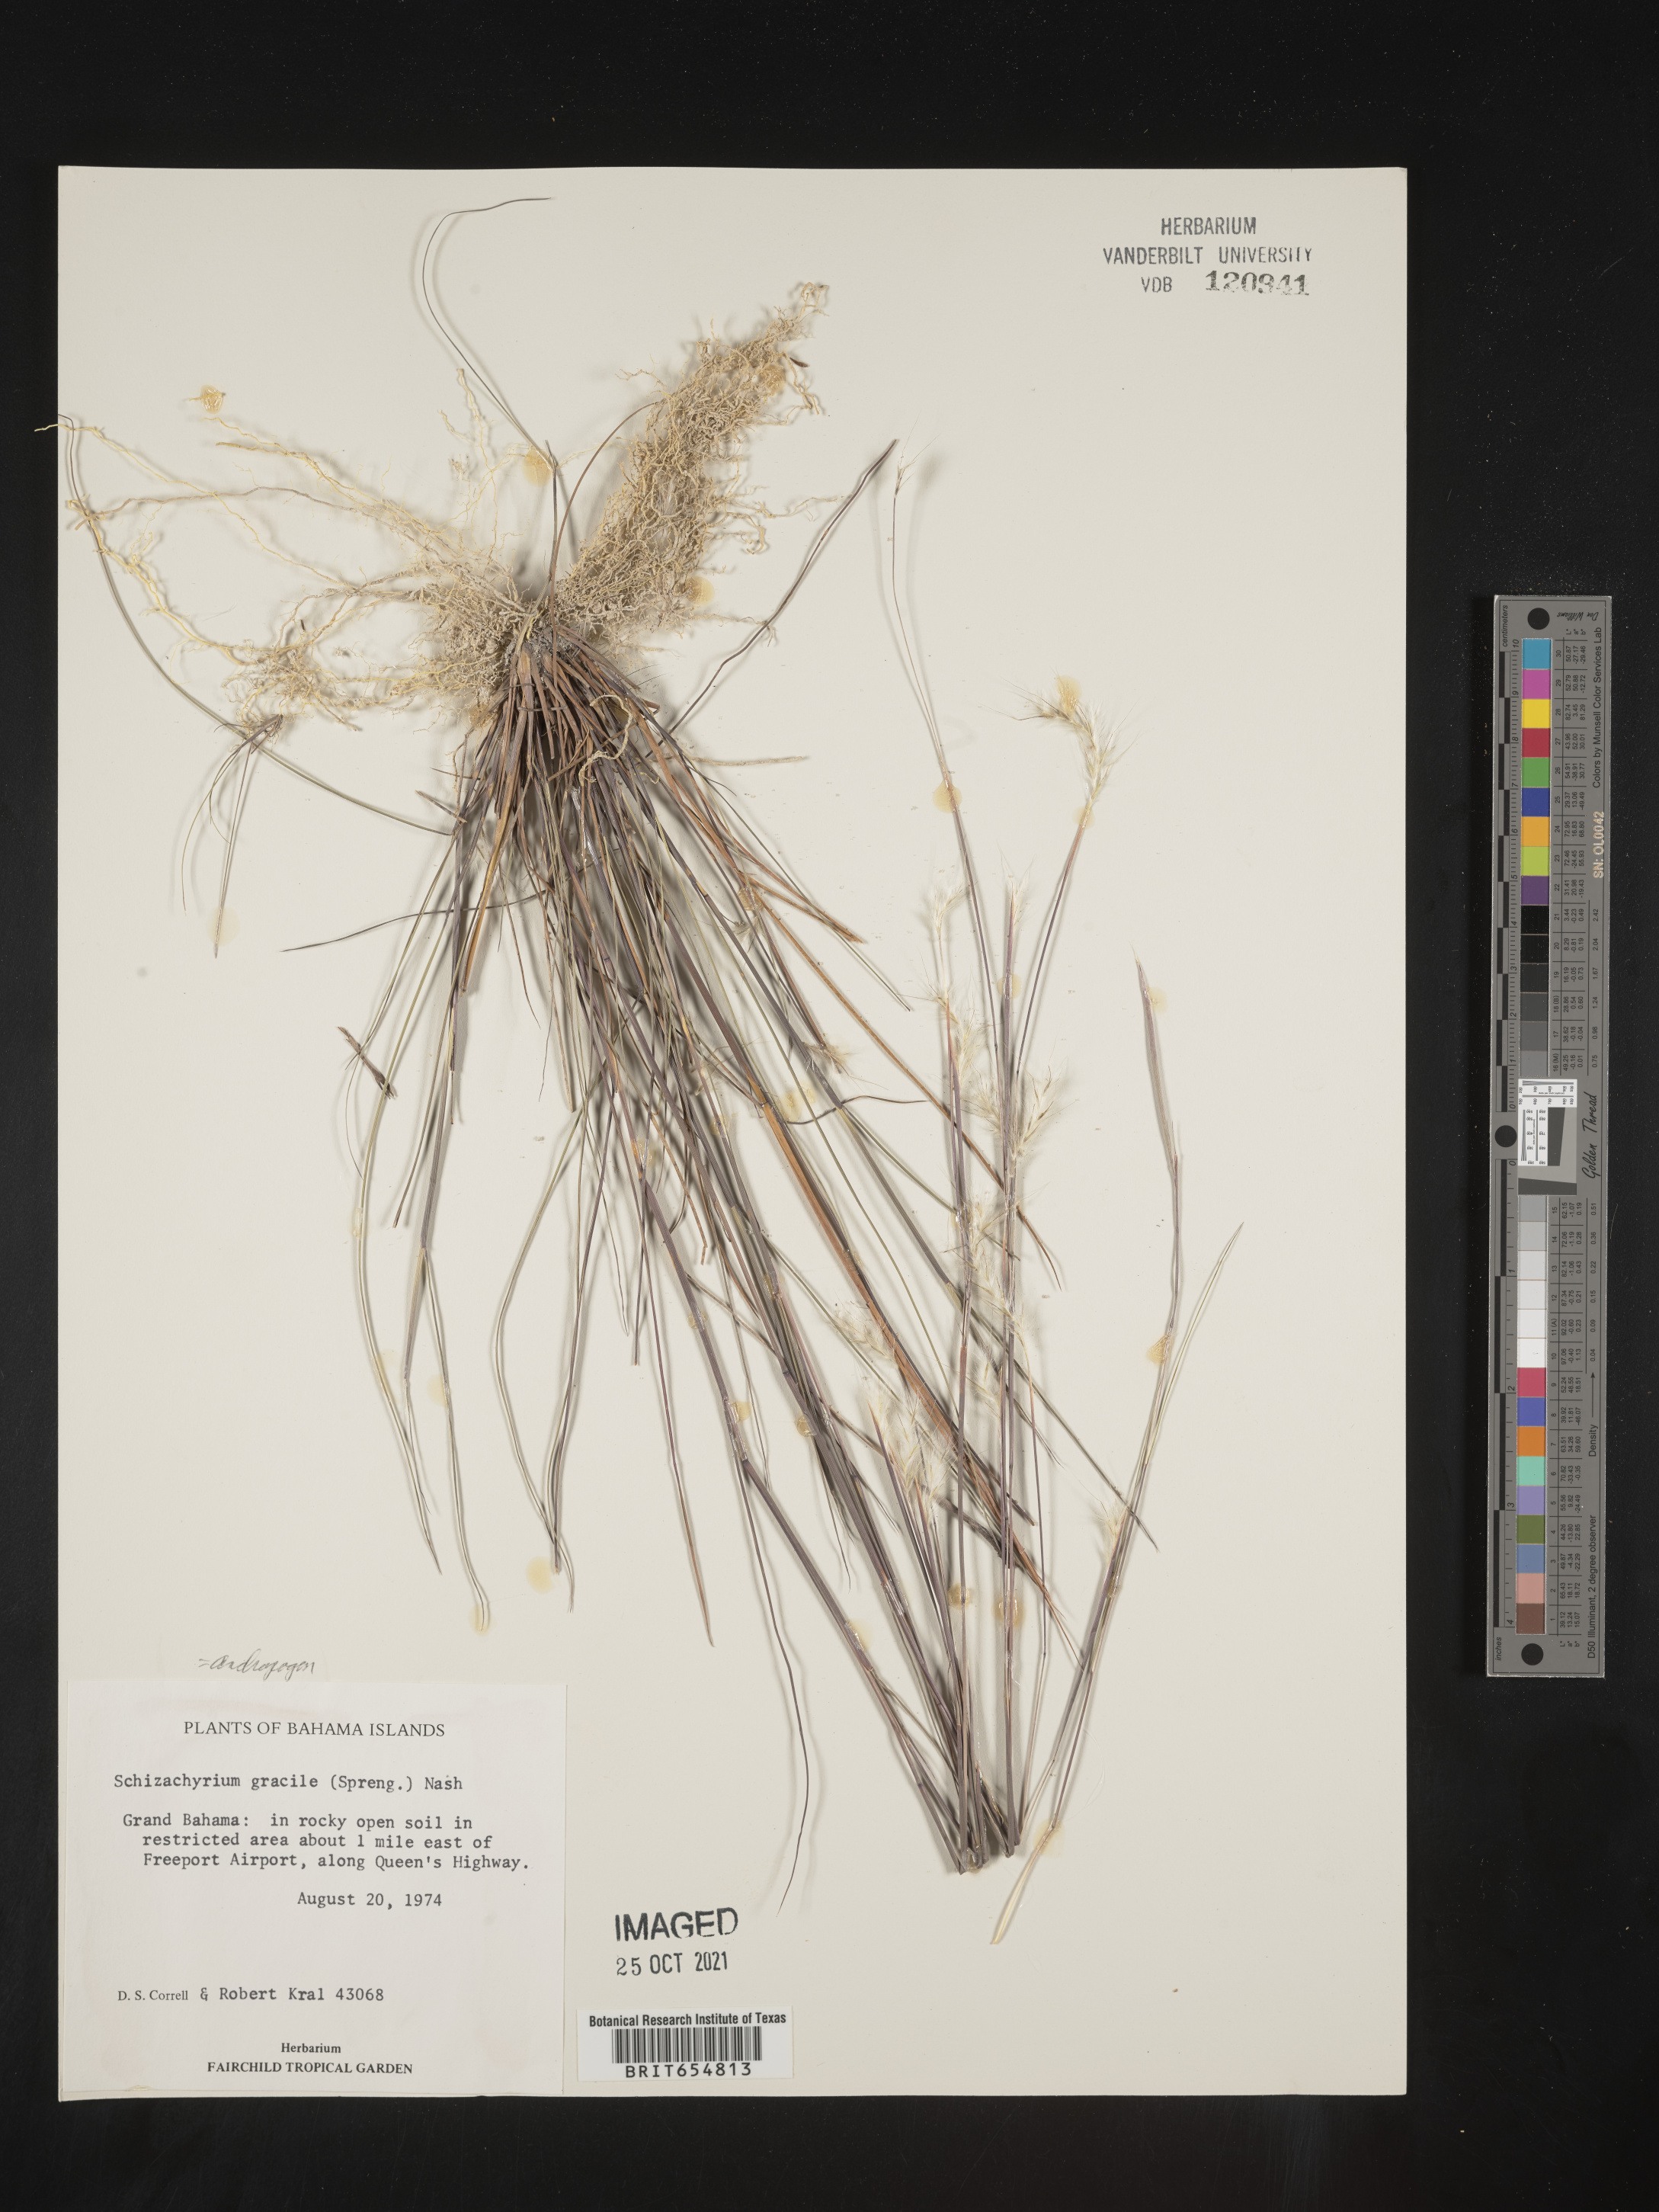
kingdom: Plantae
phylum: Tracheophyta
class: Liliopsida
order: Poales
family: Poaceae
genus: Andropogon
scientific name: Andropogon
